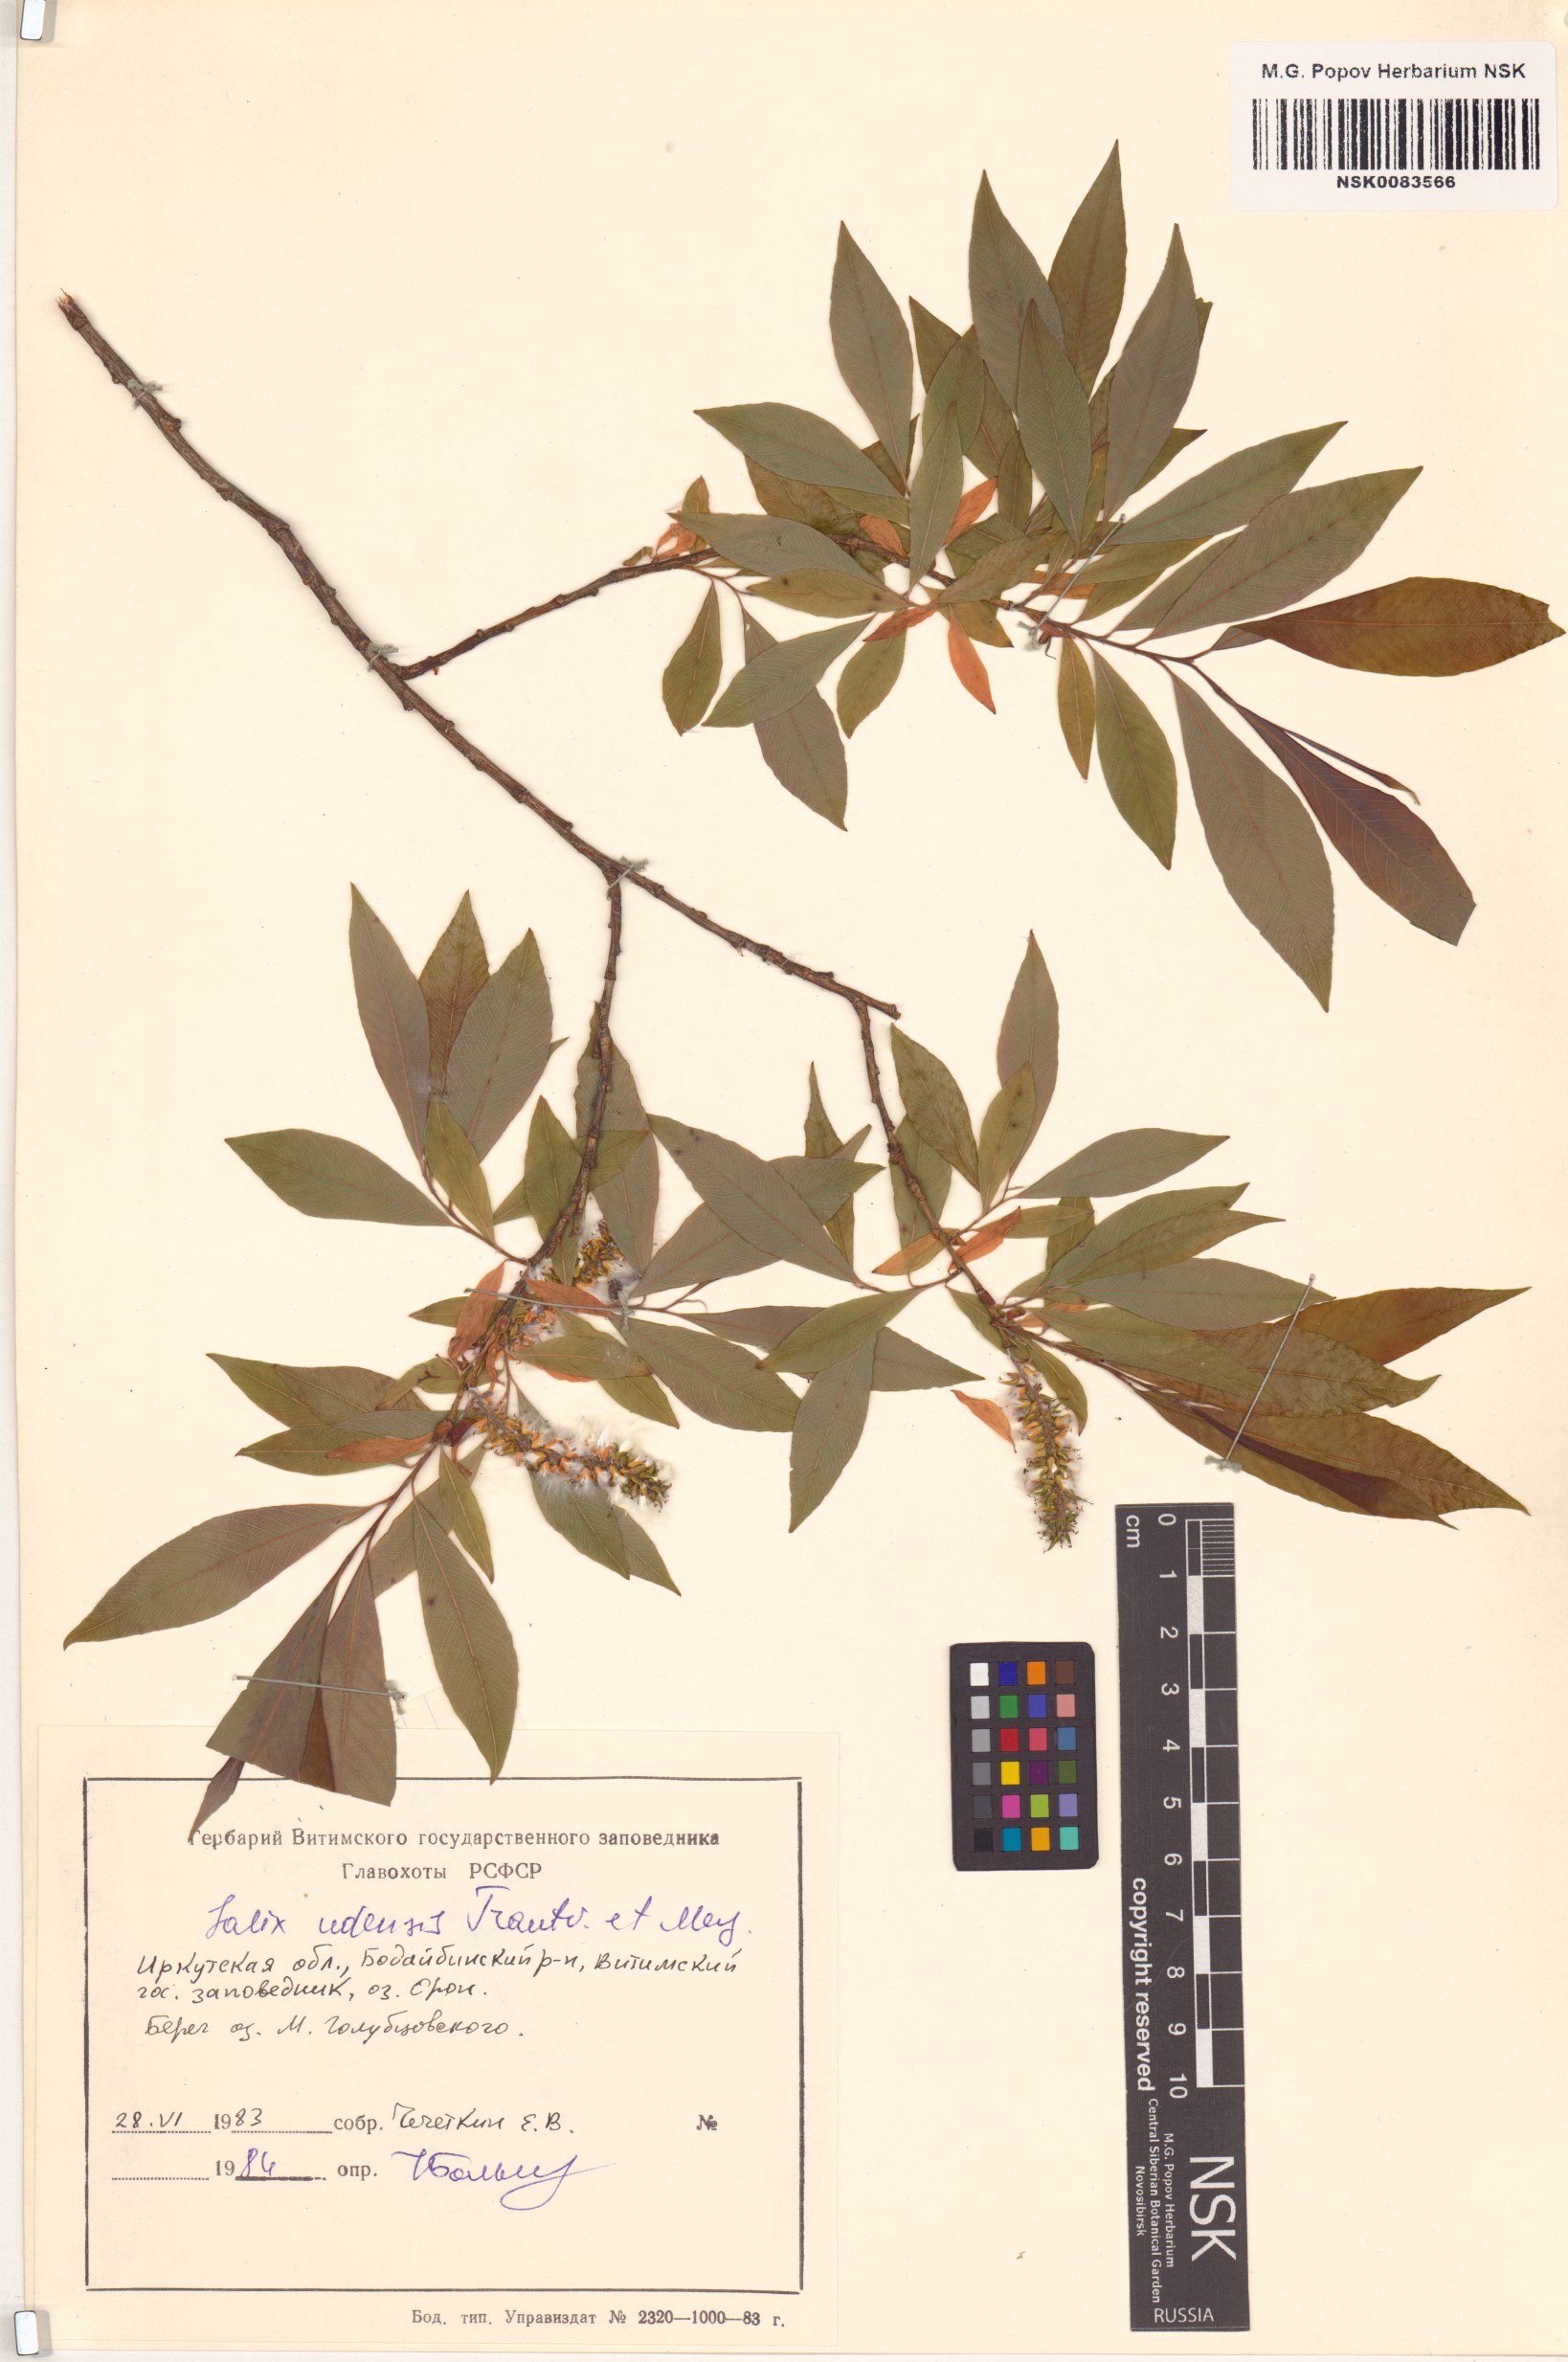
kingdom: Plantae
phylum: Tracheophyta
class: Magnoliopsida
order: Malpighiales
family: Salicaceae
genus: Salix
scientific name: Salix udensis
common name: Sachalin willow
